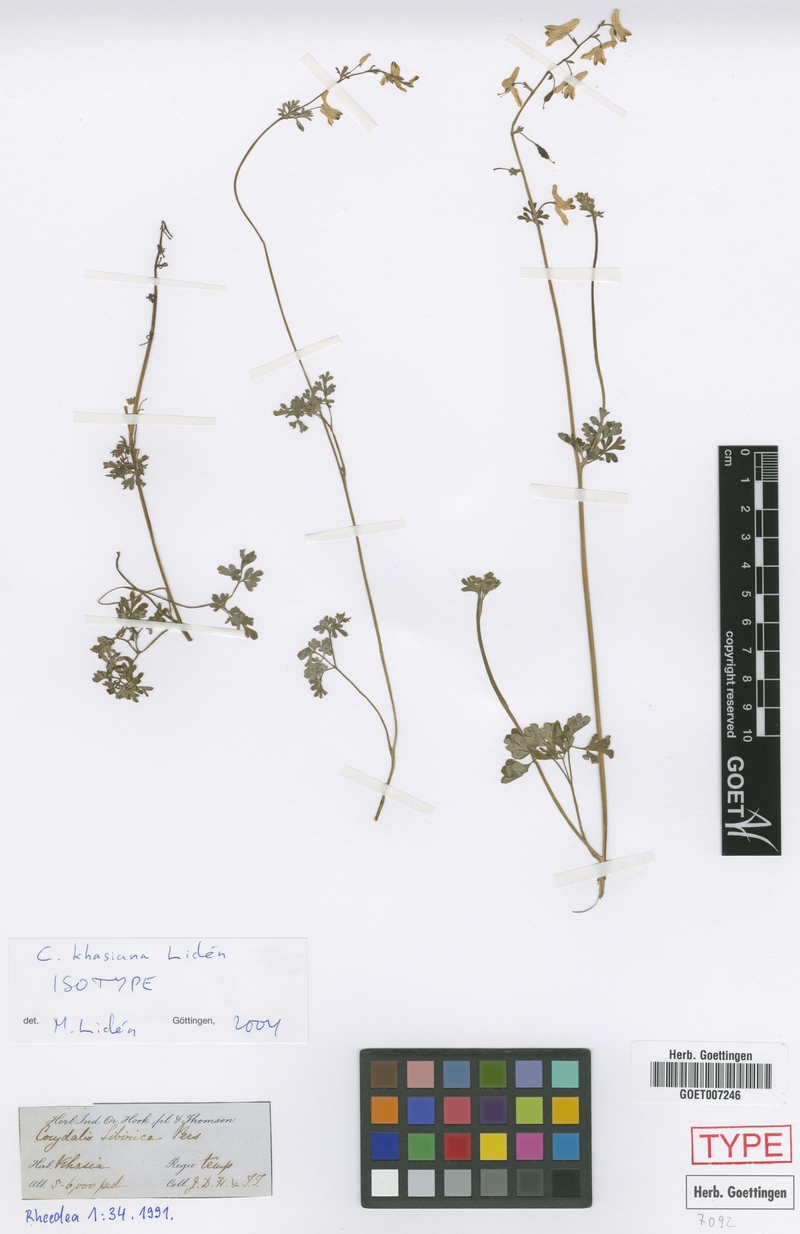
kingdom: Plantae
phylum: Tracheophyta
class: Magnoliopsida
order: Ranunculales
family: Papaveraceae
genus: Corydalis
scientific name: Corydalis khasiana
